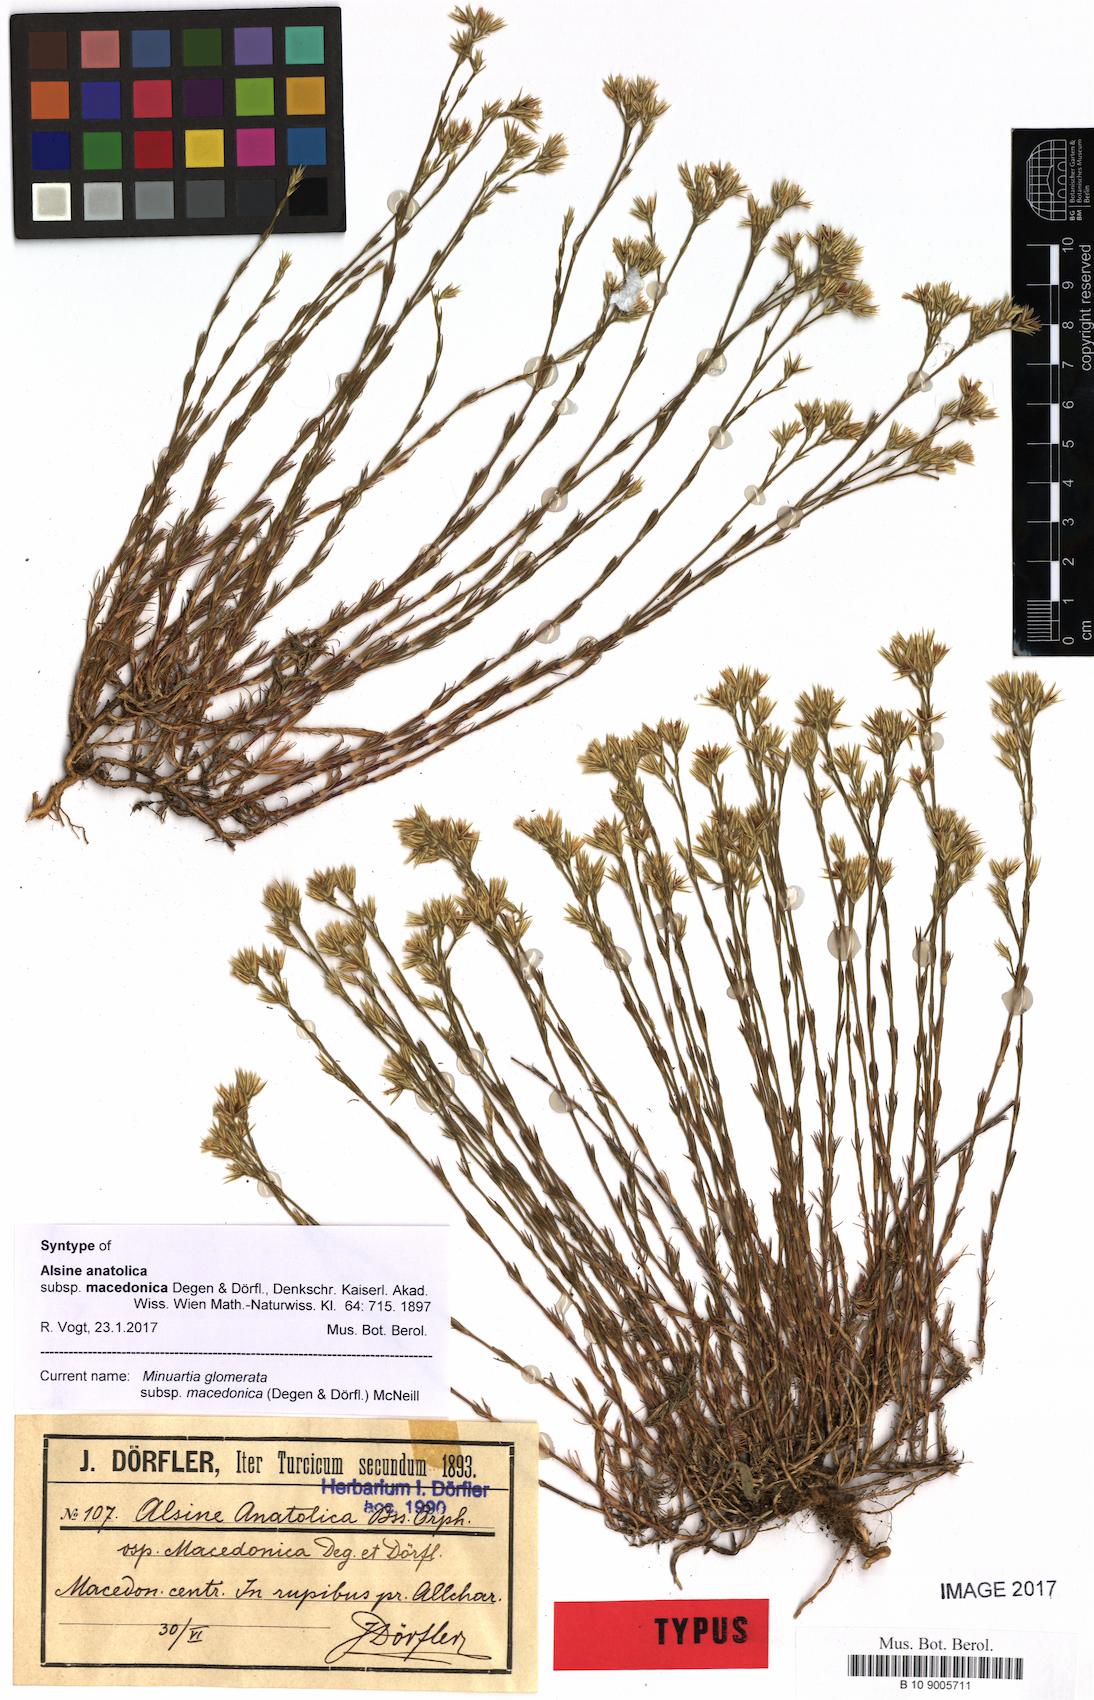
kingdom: Plantae
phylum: Tracheophyta
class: Magnoliopsida
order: Caryophyllales
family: Caryophyllaceae
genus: Minuartia
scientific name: Minuartia glomerata
